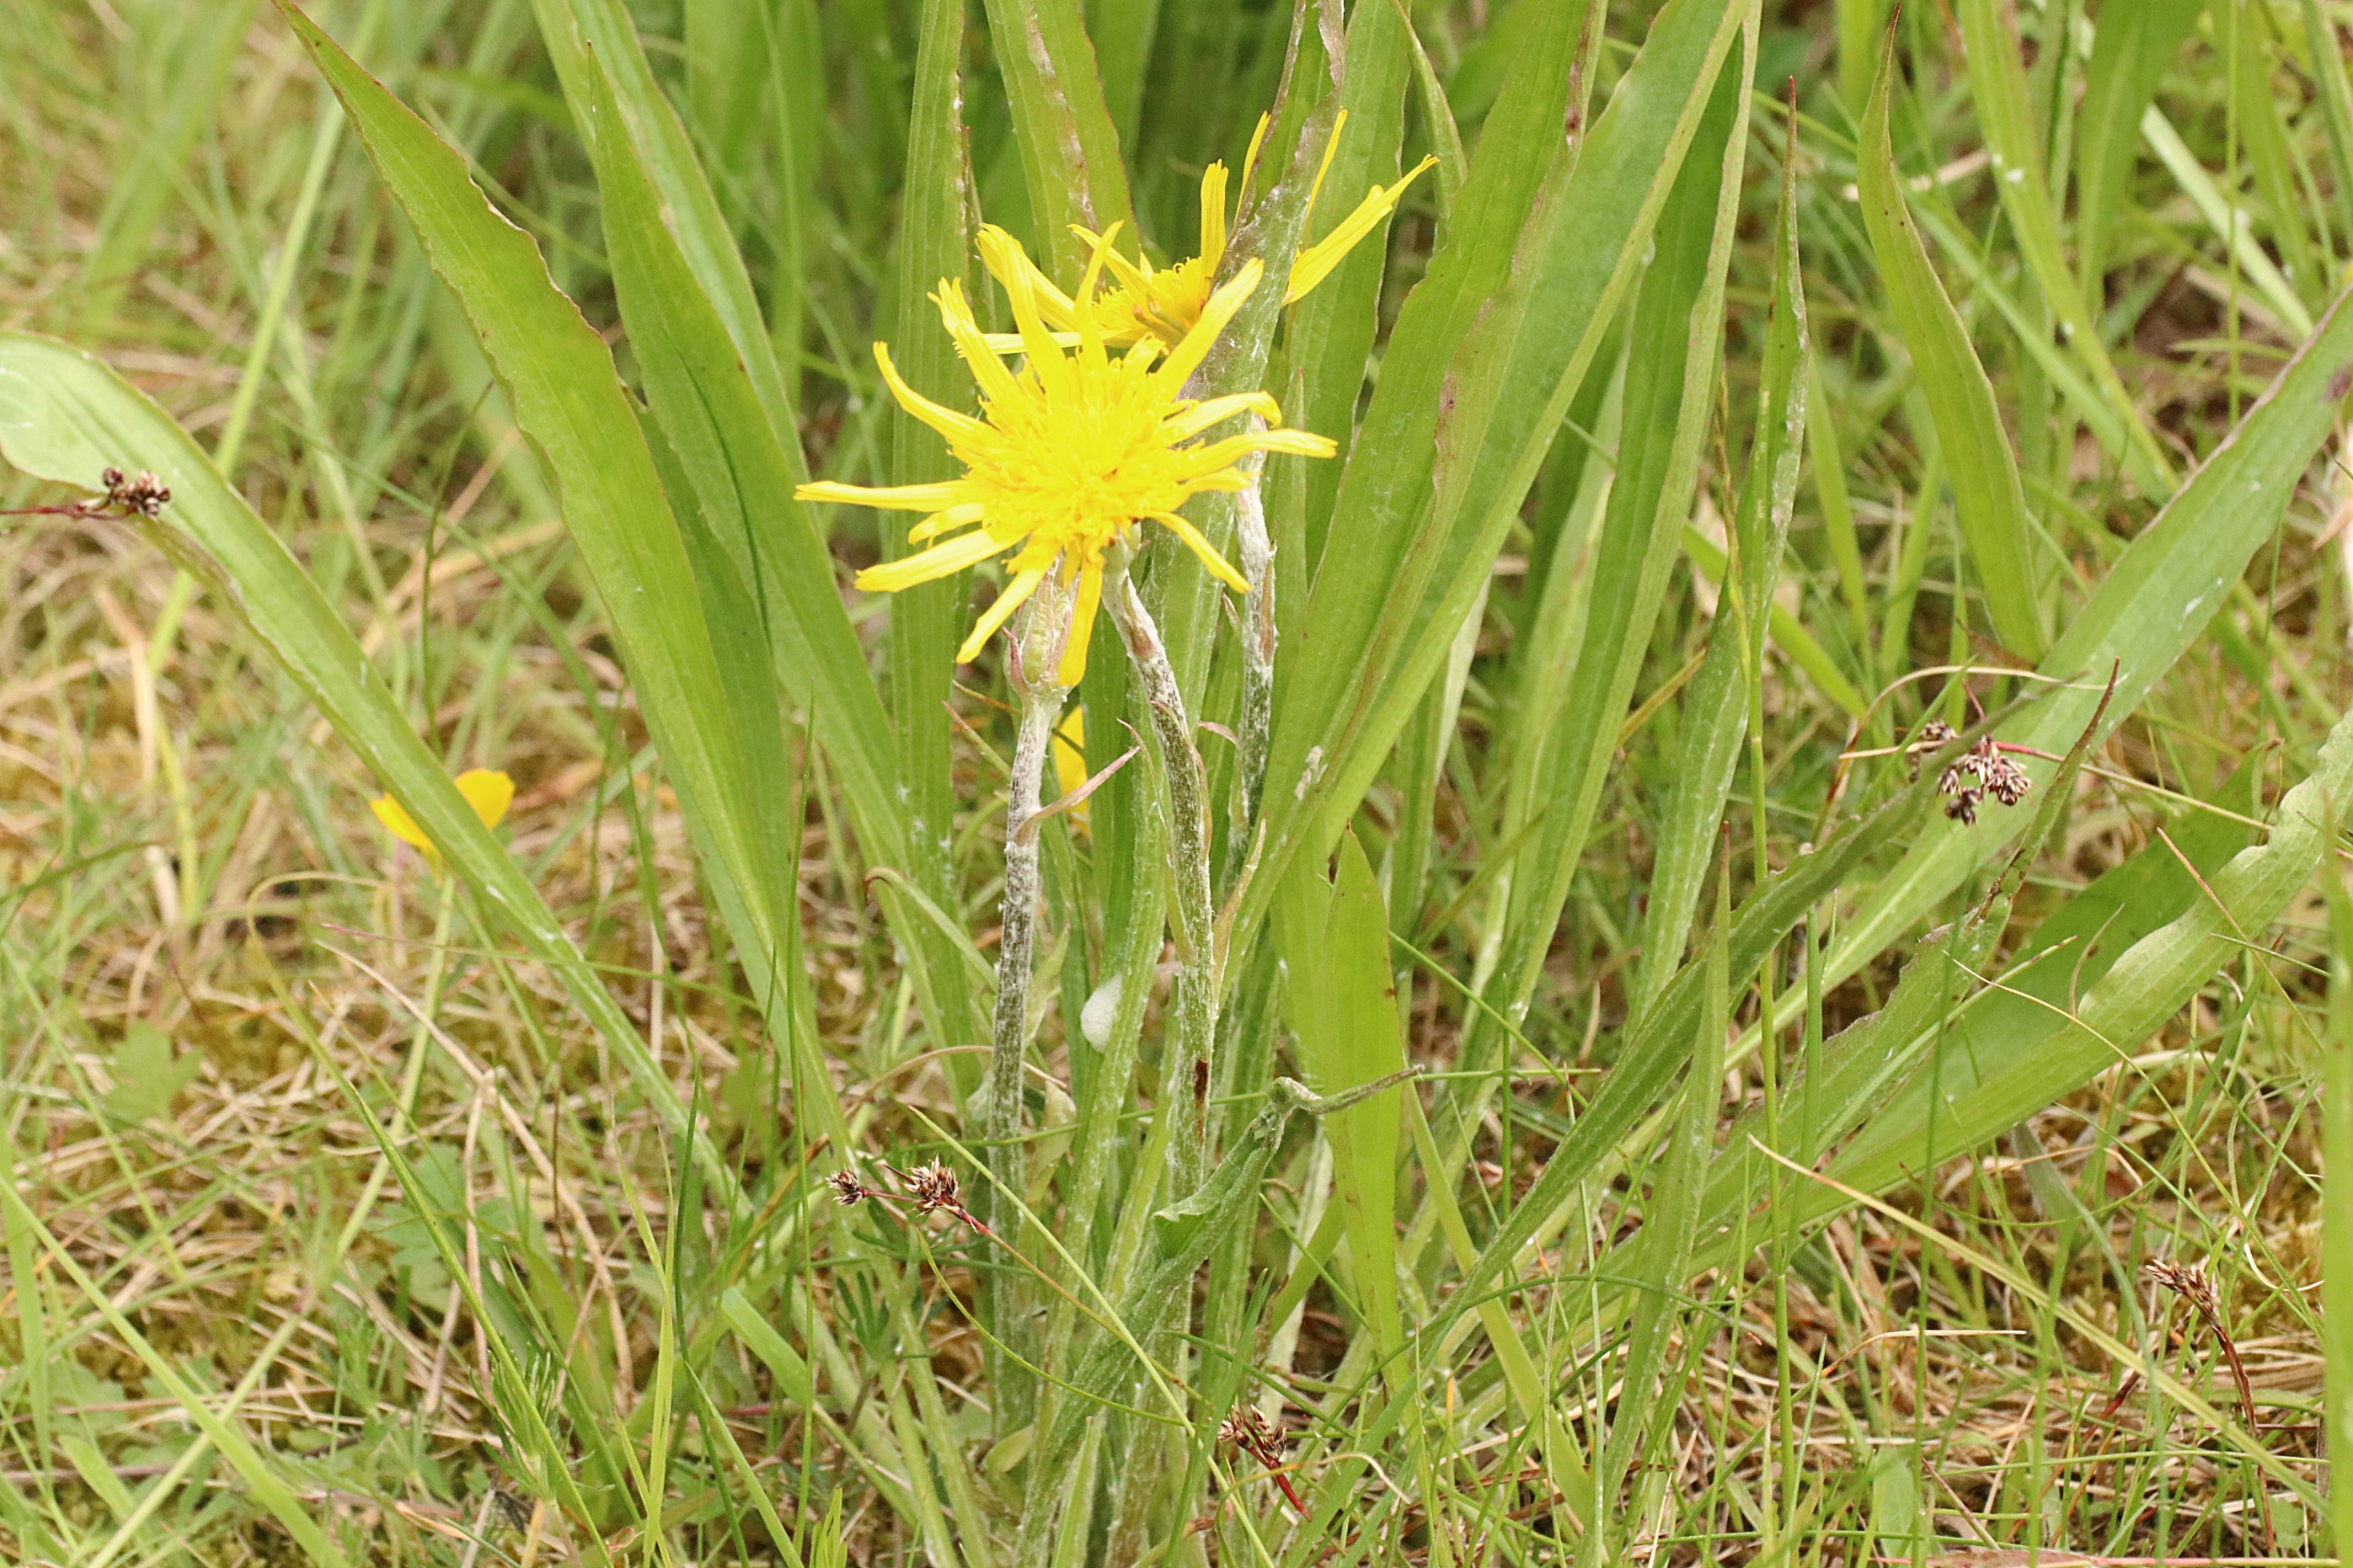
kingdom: Plantae
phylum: Tracheophyta
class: Magnoliopsida
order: Asterales
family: Asteraceae
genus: Scorzonera
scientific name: Scorzonera humilis
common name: Lav skorsoner
